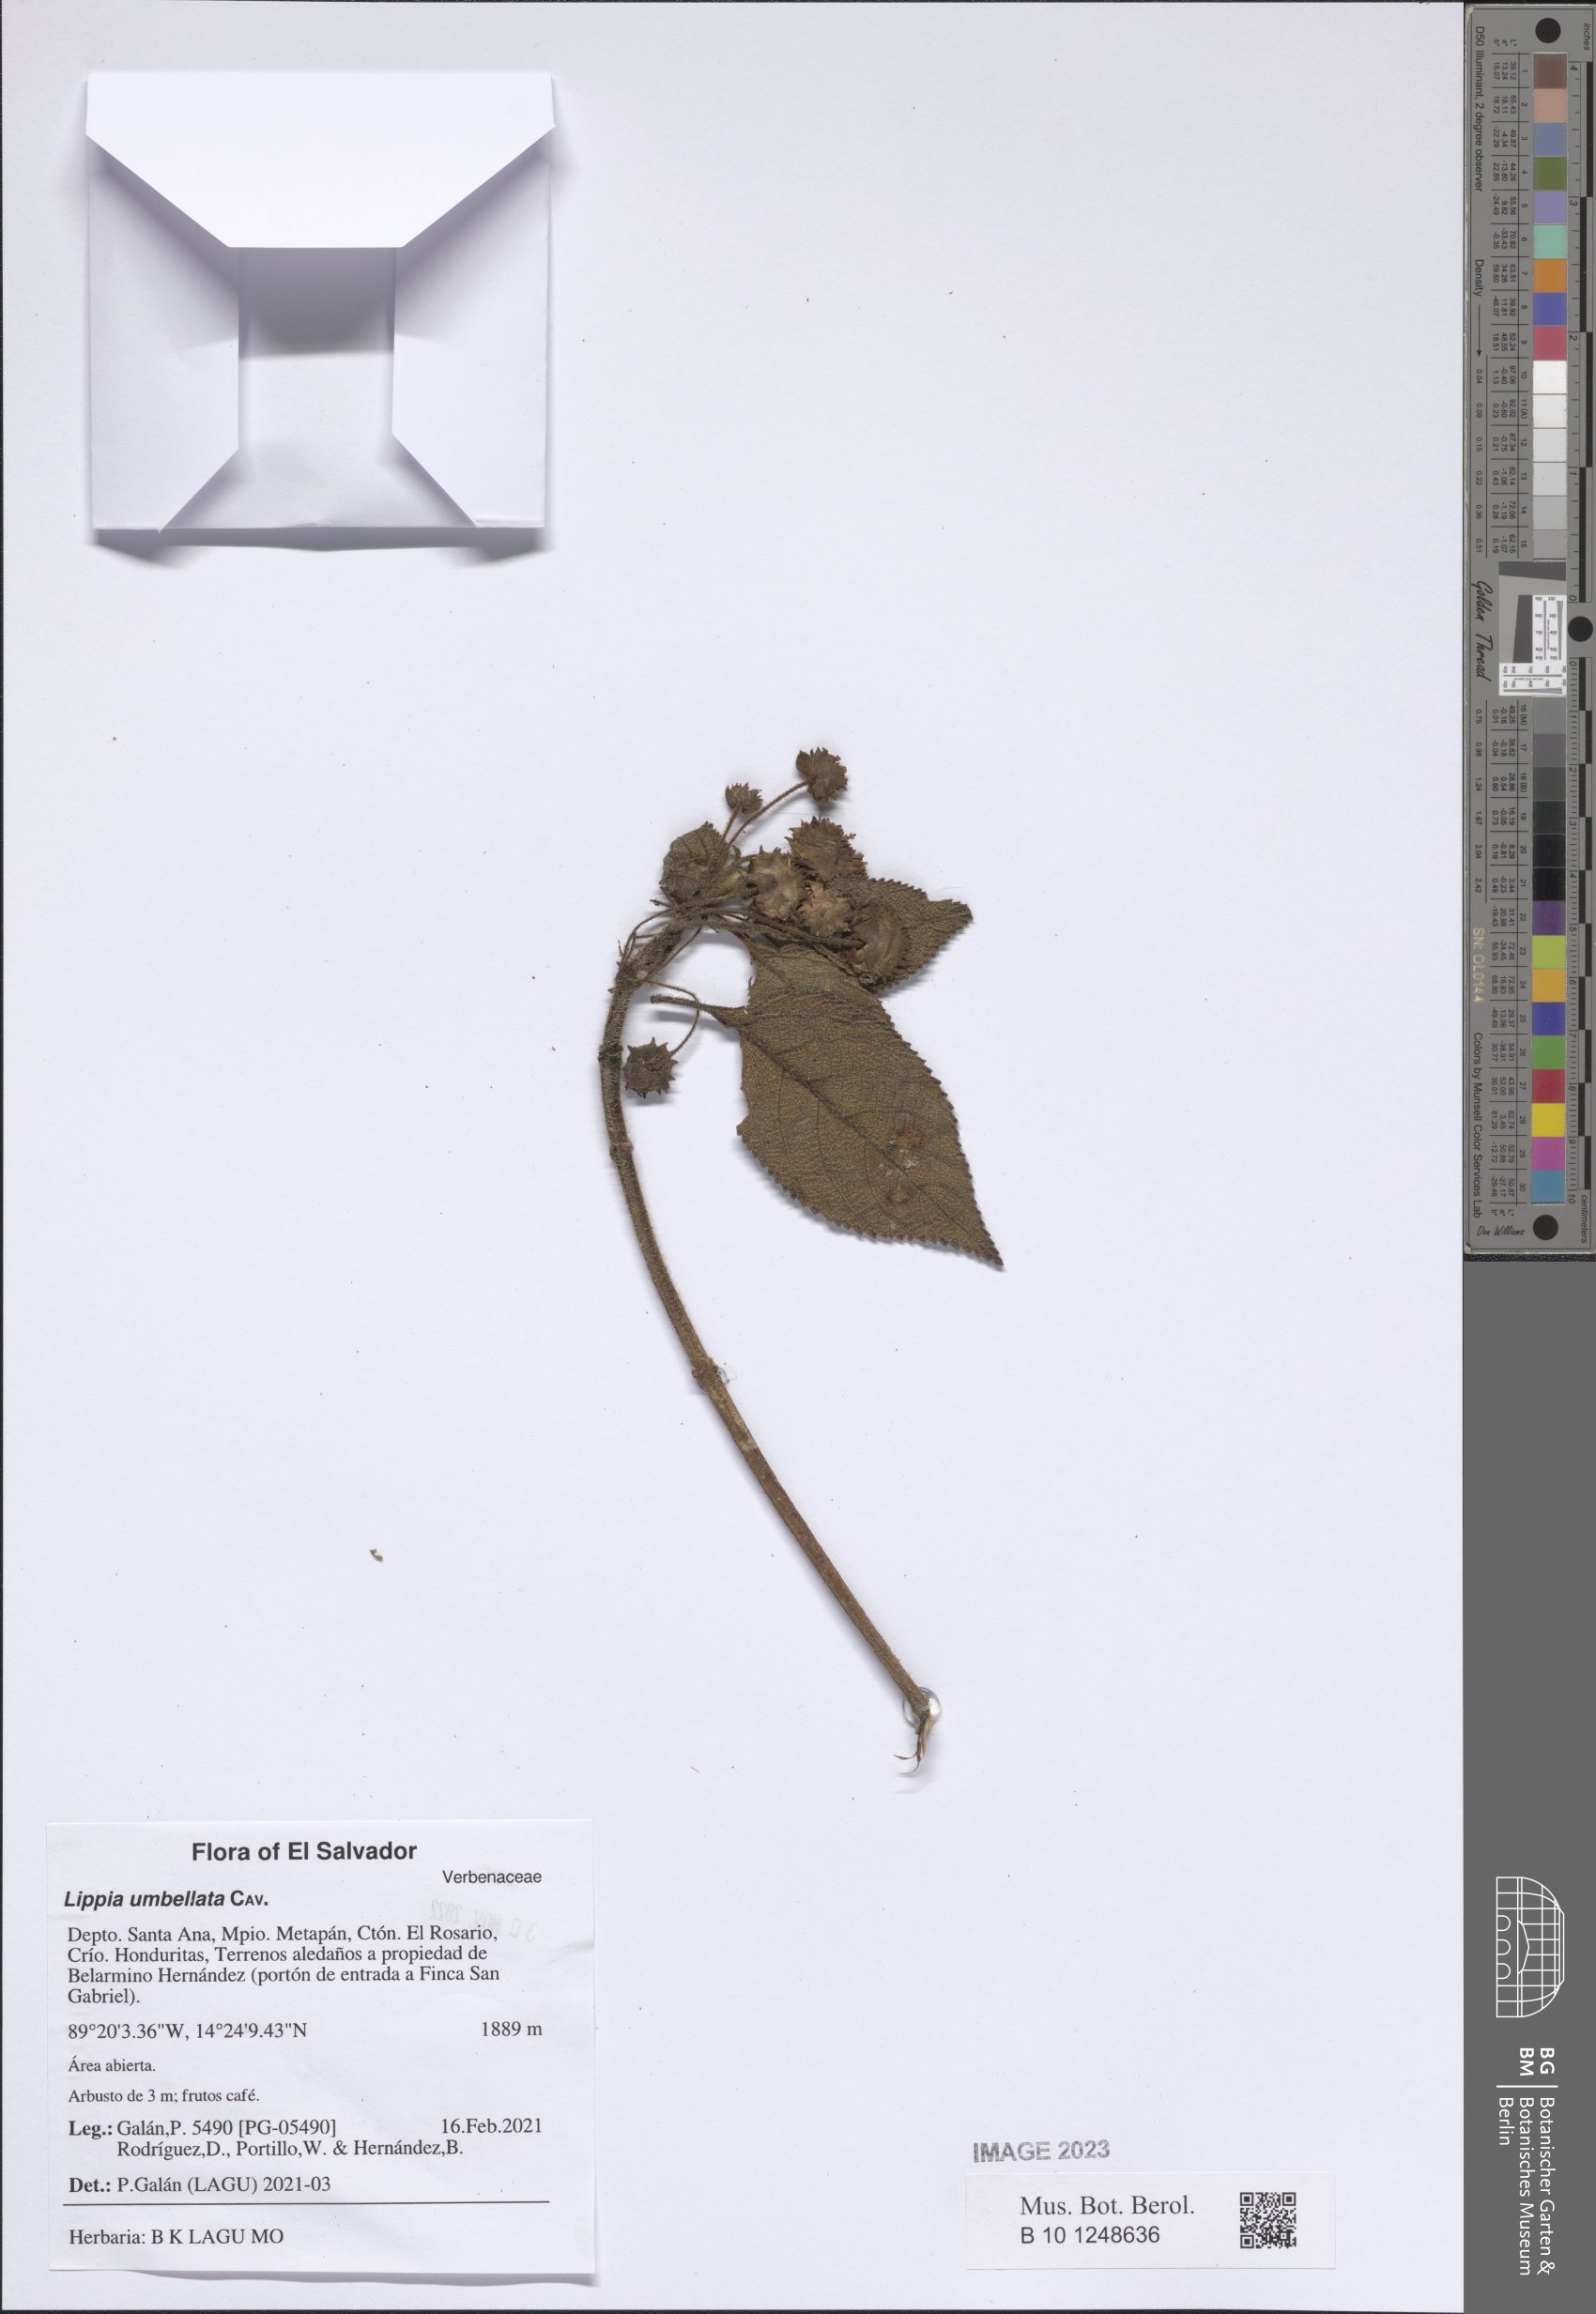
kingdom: Plantae
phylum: Tracheophyta
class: Magnoliopsida
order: Lamiales
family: Verbenaceae
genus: Lippia
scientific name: Lippia umbellata
